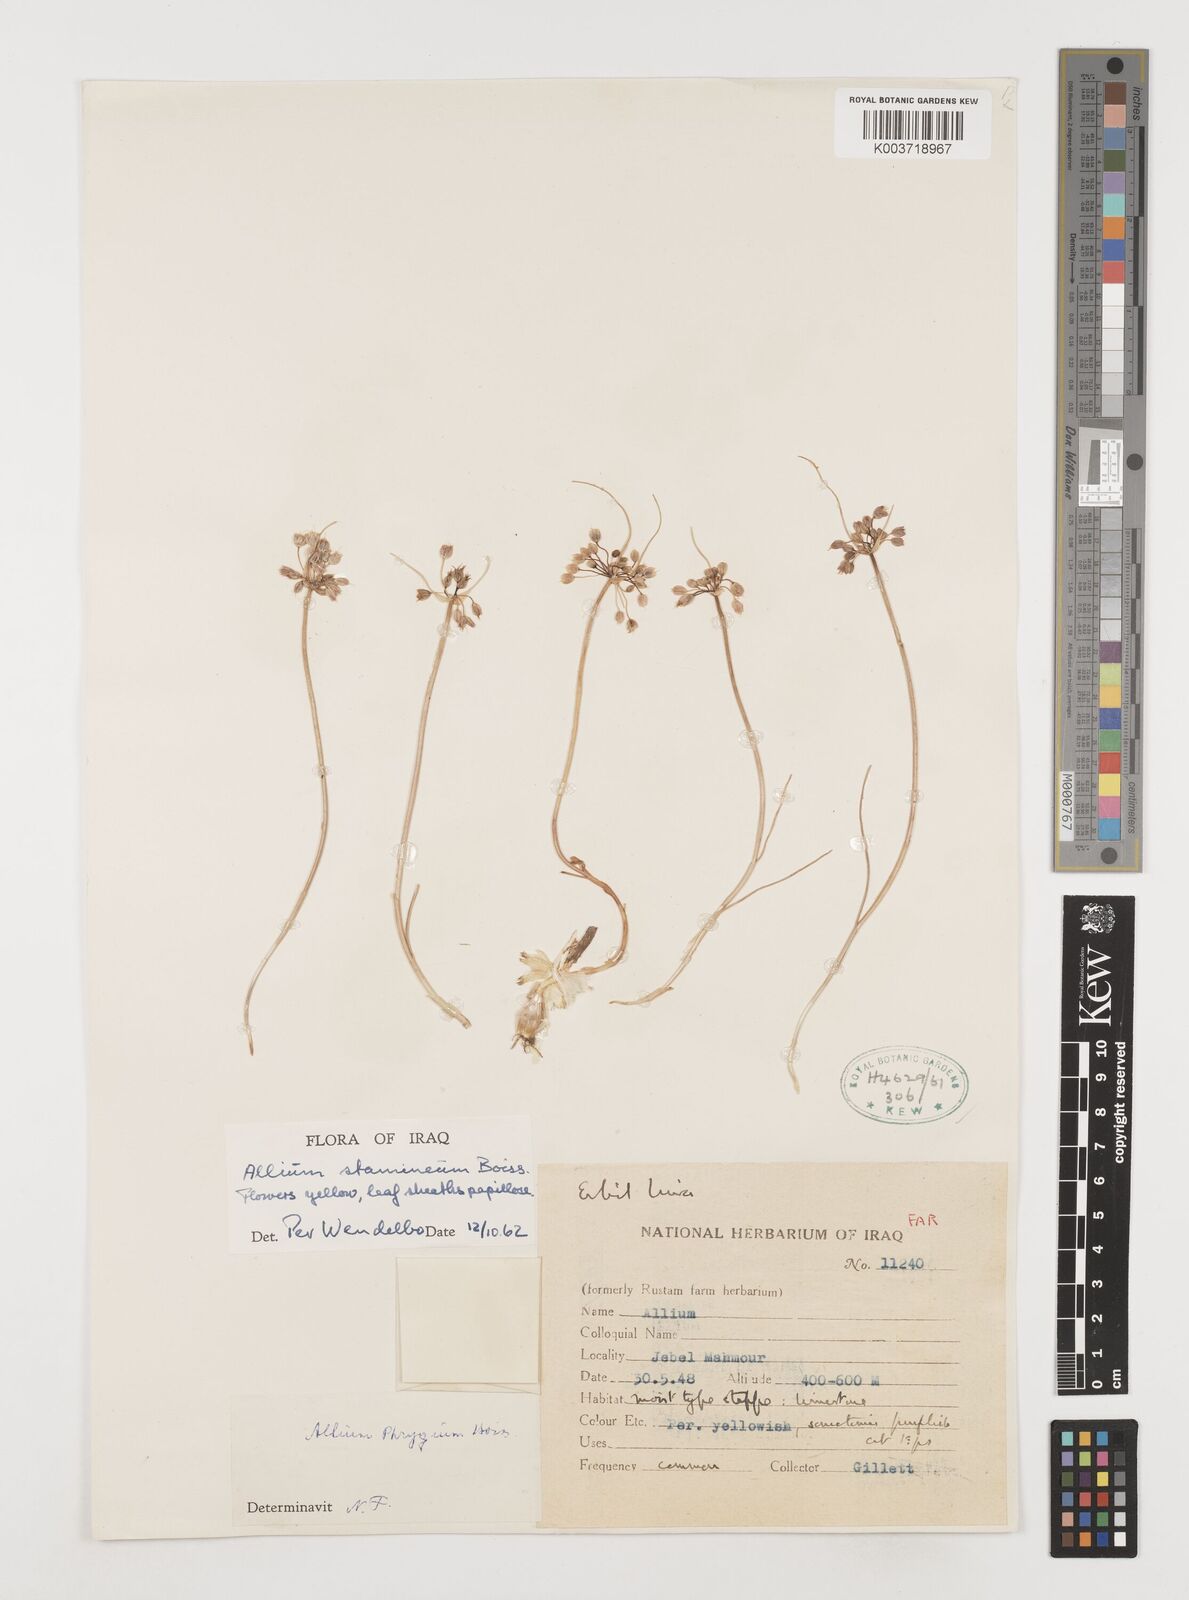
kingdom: Plantae
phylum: Tracheophyta
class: Liliopsida
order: Asparagales
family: Amaryllidaceae
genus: Allium
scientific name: Allium stamineum
